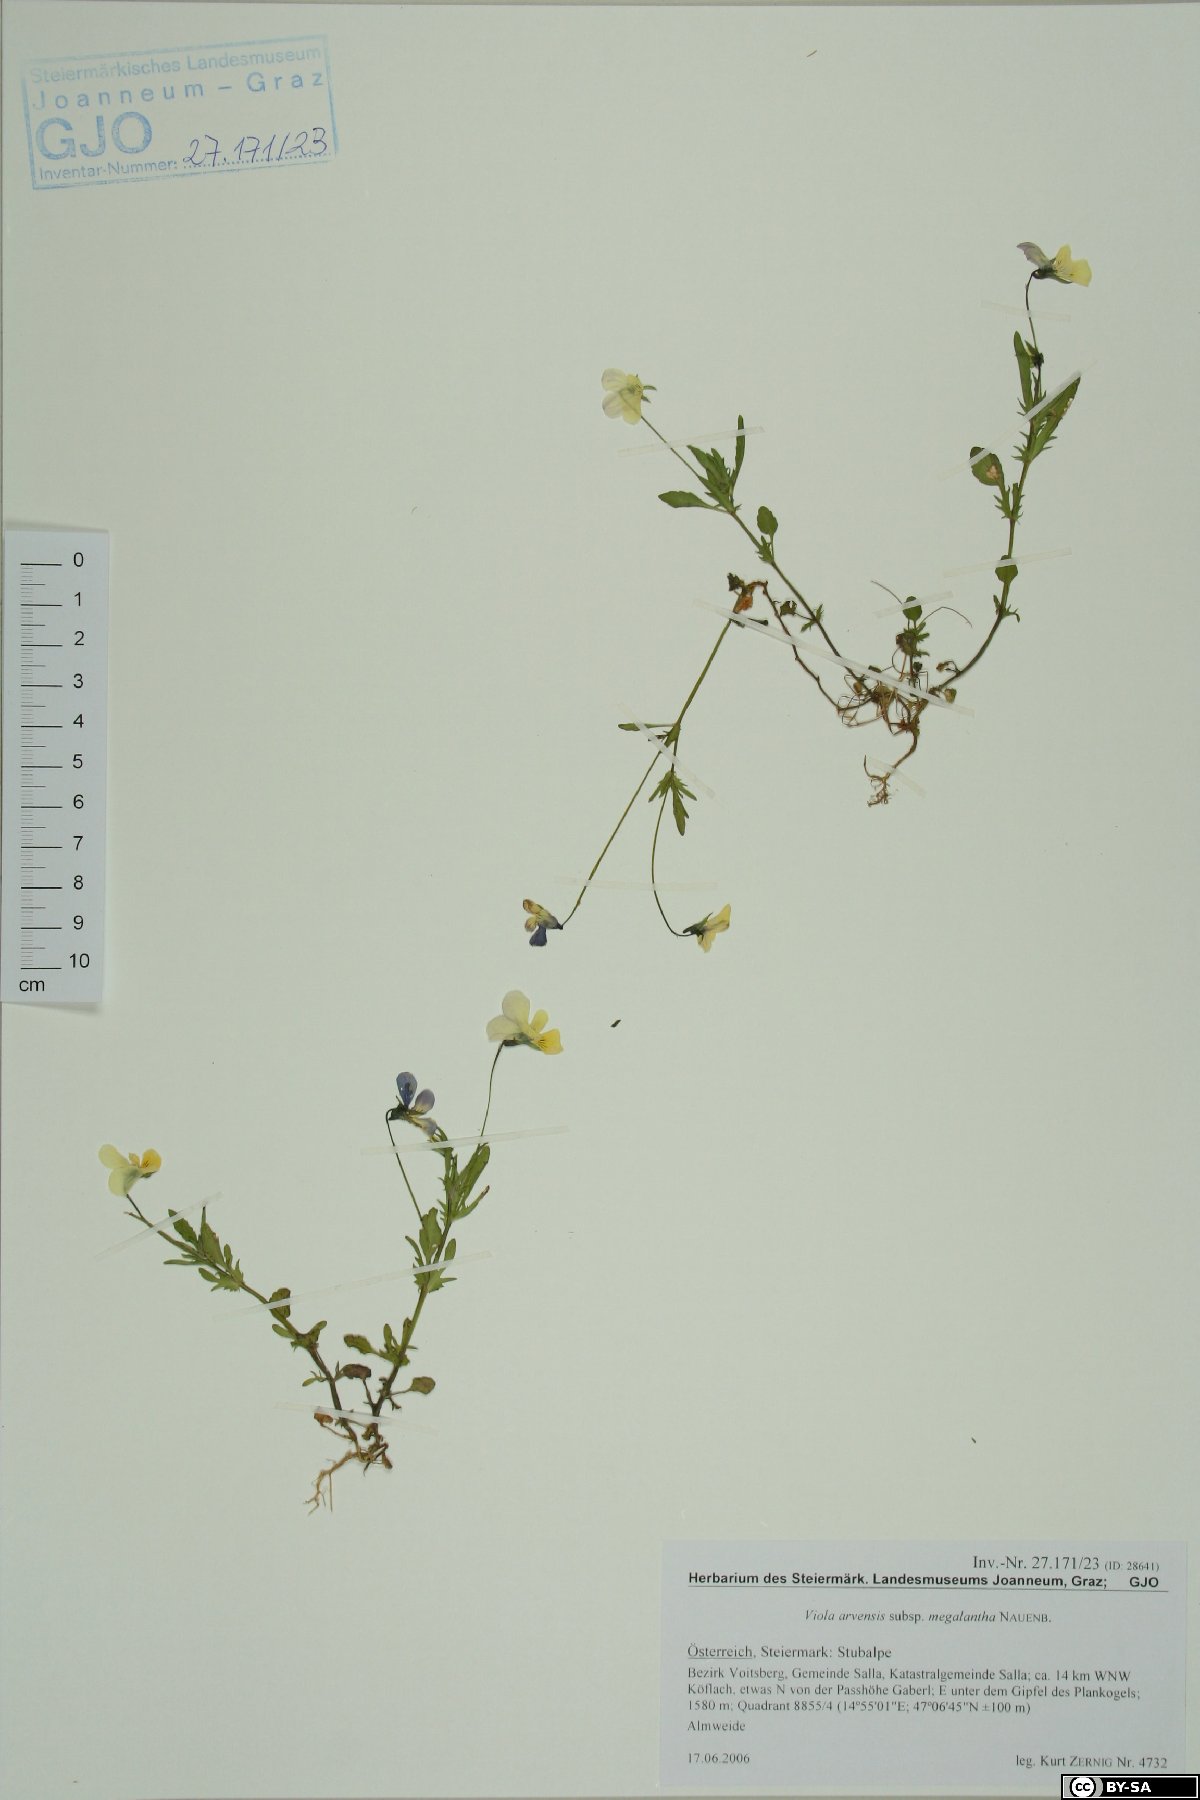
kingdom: Plantae
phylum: Tracheophyta
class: Magnoliopsida
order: Malpighiales
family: Violaceae
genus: Viola
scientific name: Viola arvensis
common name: Field pansy
